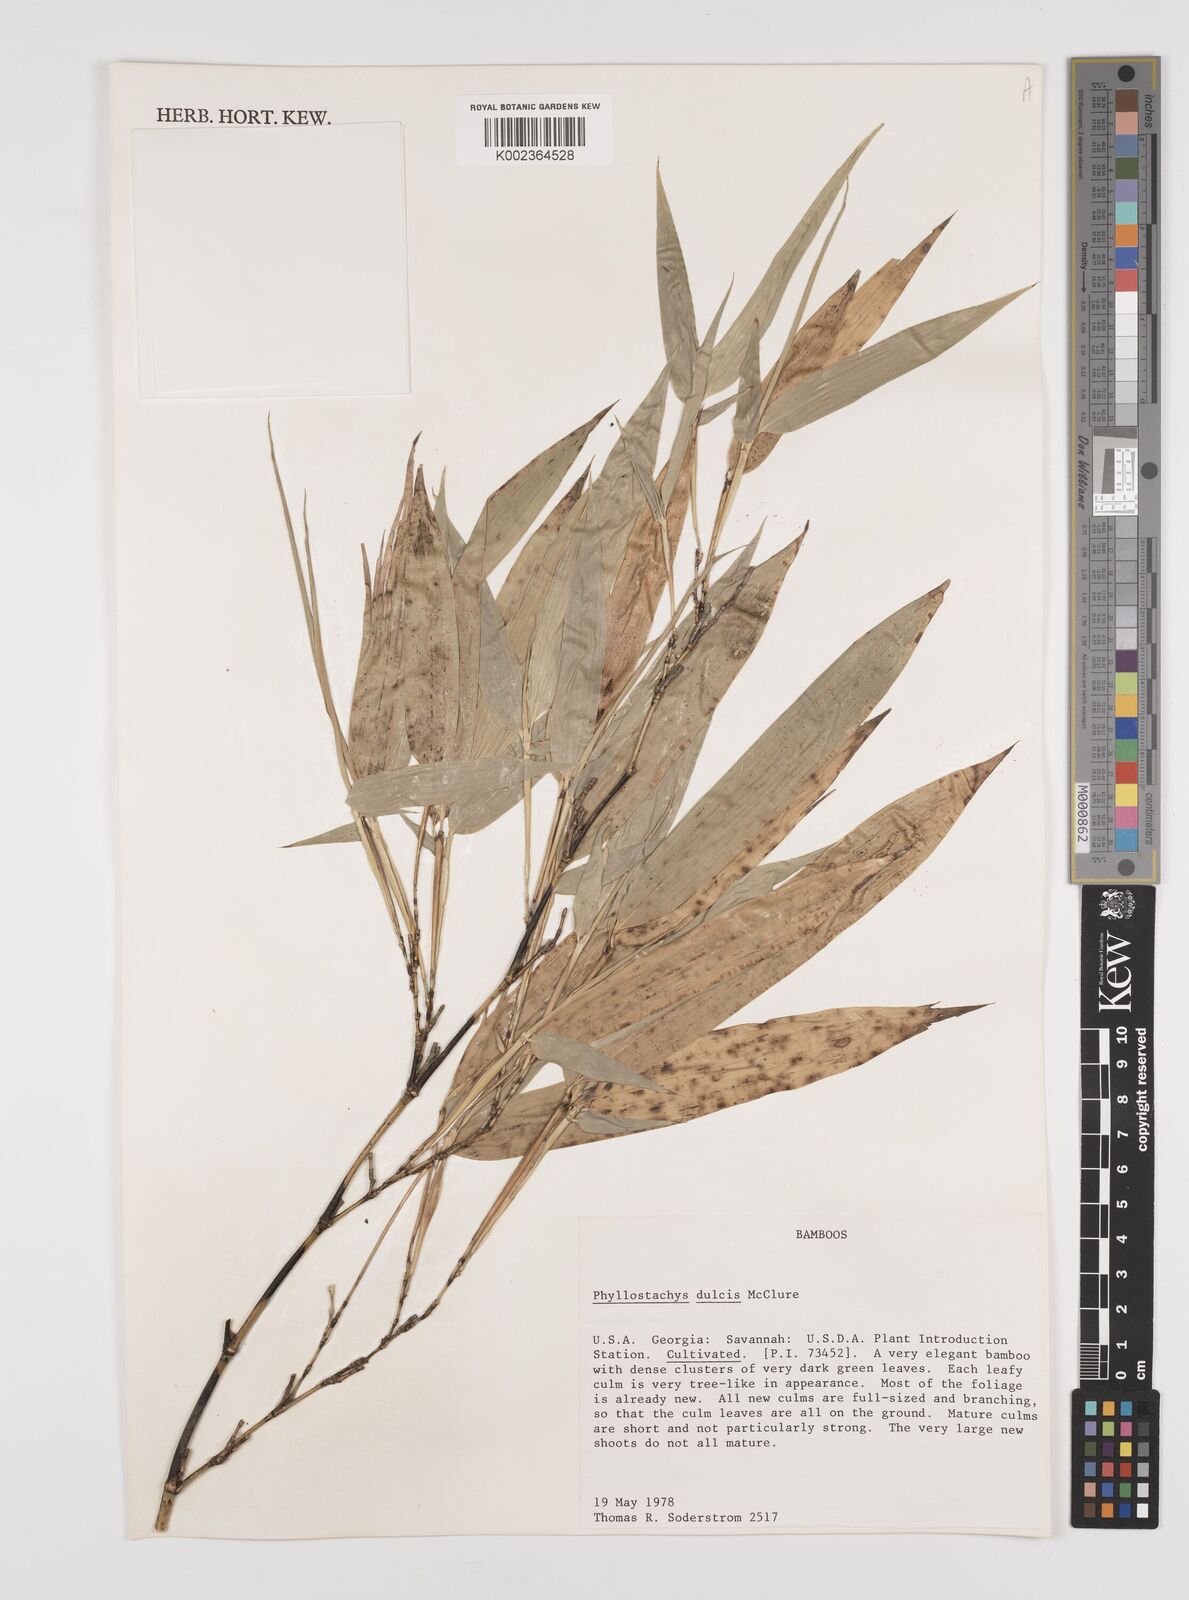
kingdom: Plantae
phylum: Tracheophyta
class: Liliopsida
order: Poales
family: Poaceae
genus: Phyllostachys
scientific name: Phyllostachys dulcis
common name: Sweetshoot bamboo
